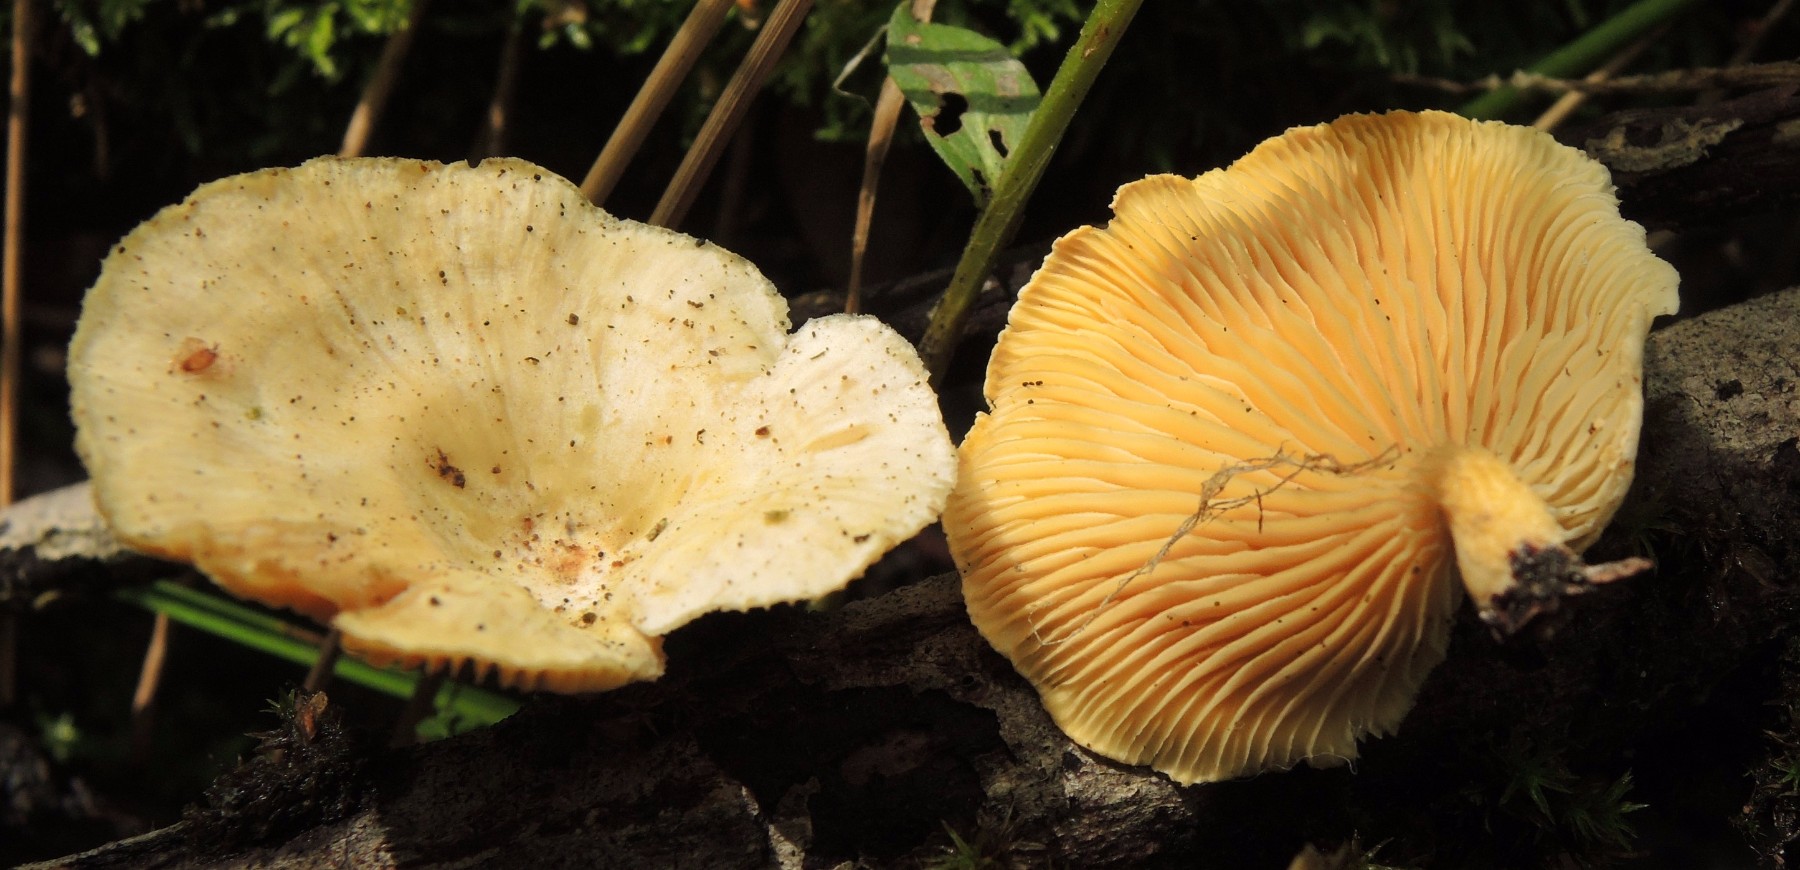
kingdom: Fungi
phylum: Basidiomycota
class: Agaricomycetes
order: Polyporales
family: Polyporaceae
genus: Neofavolus
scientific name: Neofavolus suavissimus
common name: anishat
